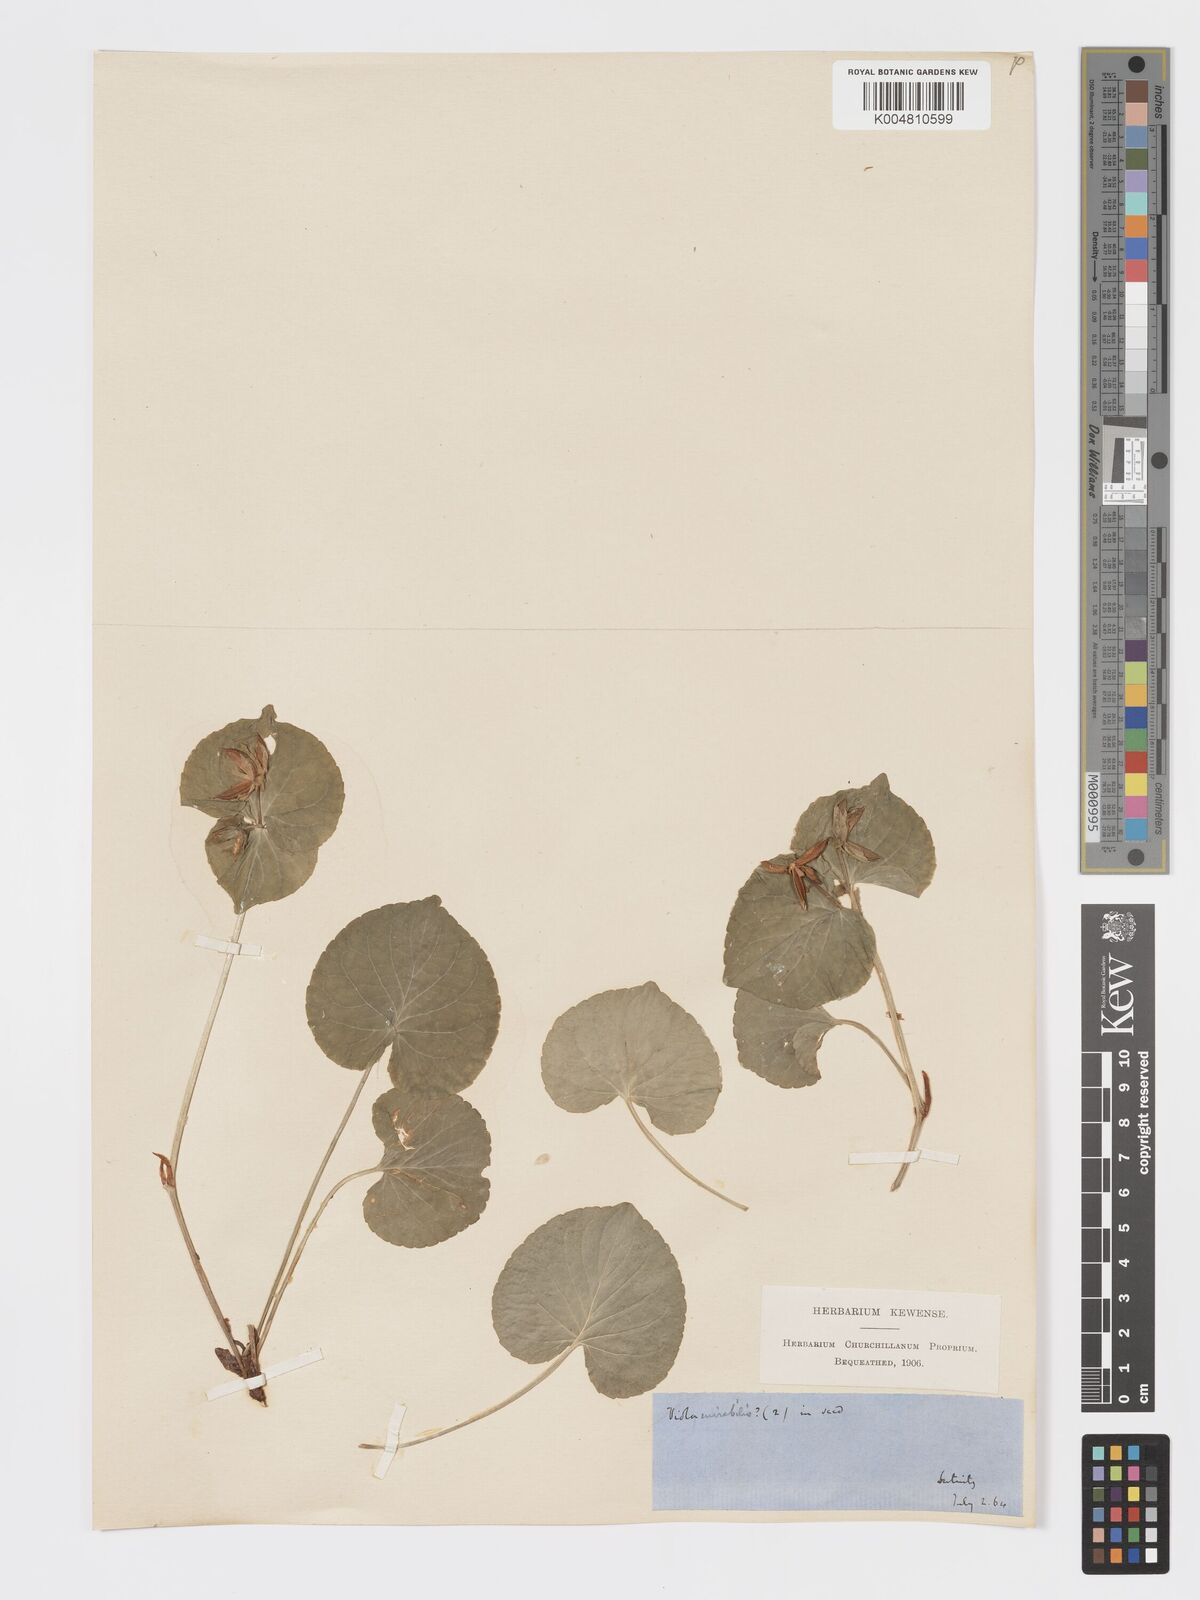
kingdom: Plantae
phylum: Tracheophyta
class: Magnoliopsida
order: Malpighiales
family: Violaceae
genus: Viola
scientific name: Viola mirabilis
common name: Wonder violet
